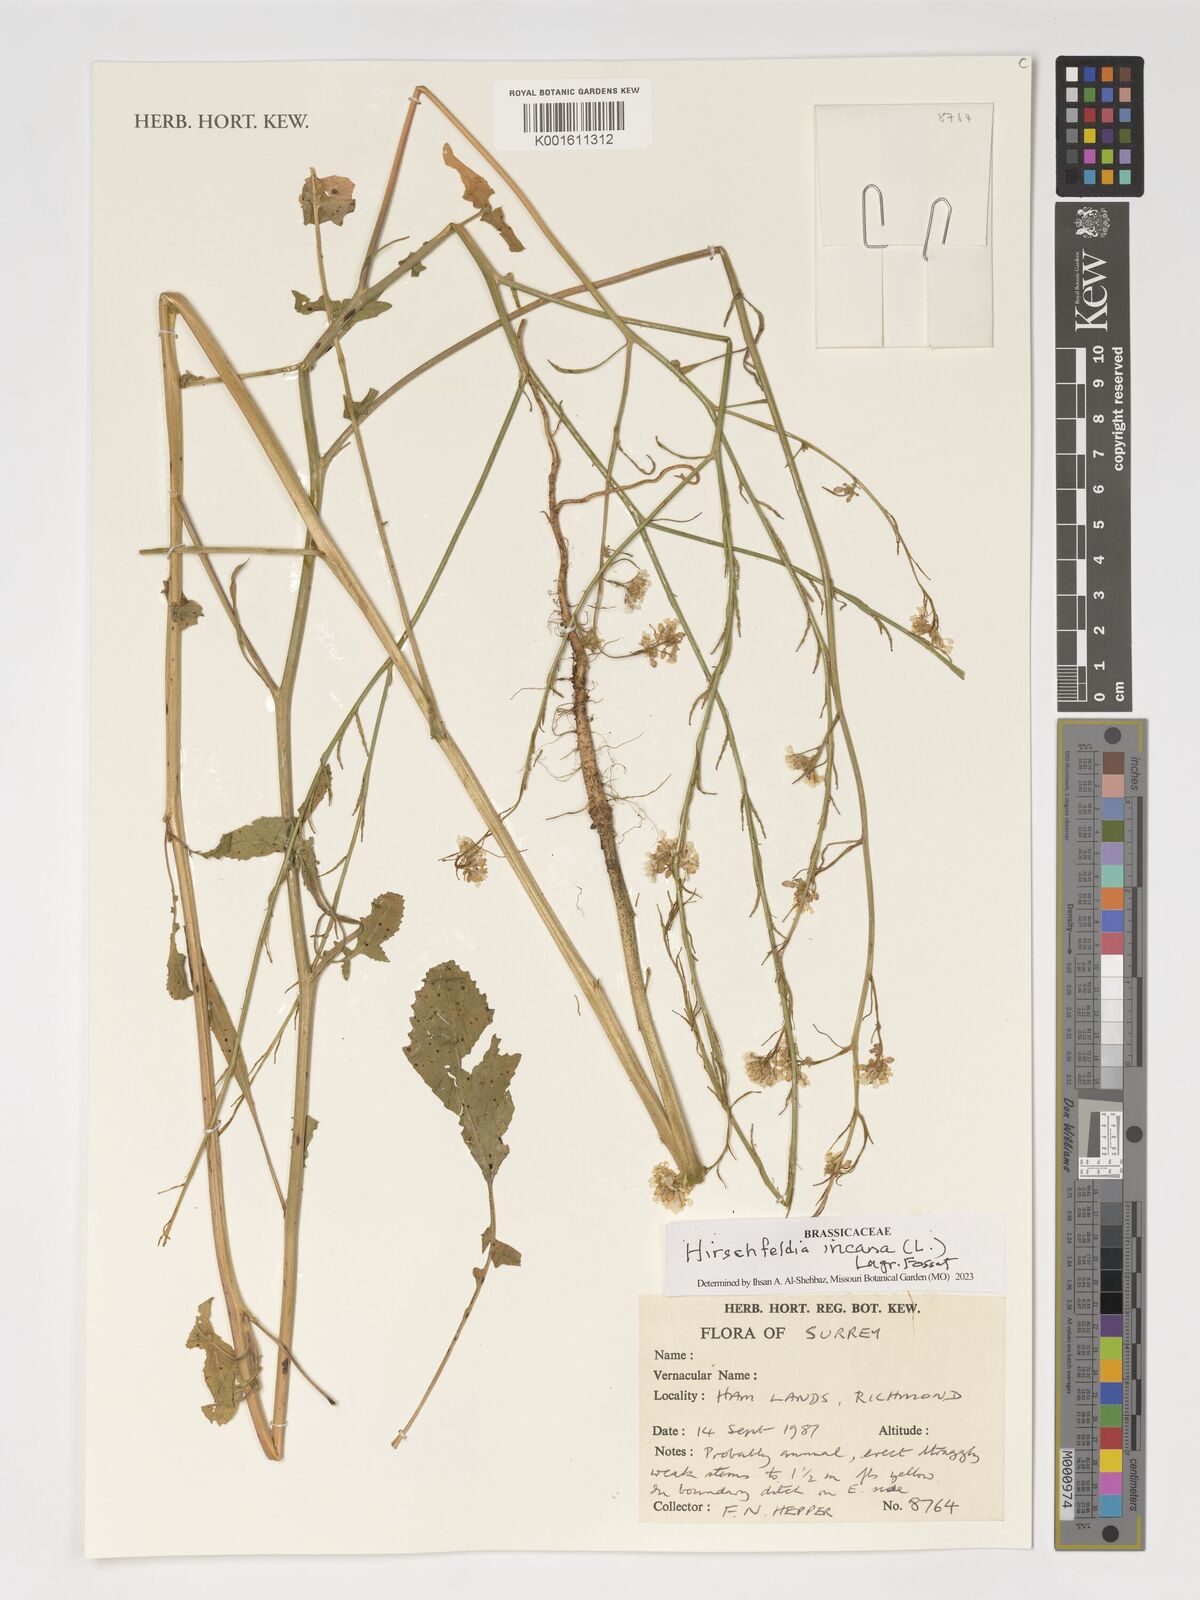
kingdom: Plantae
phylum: Tracheophyta
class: Magnoliopsida
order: Brassicales
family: Brassicaceae
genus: Hirschfeldia
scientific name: Hirschfeldia incana
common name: Hoary mustard
